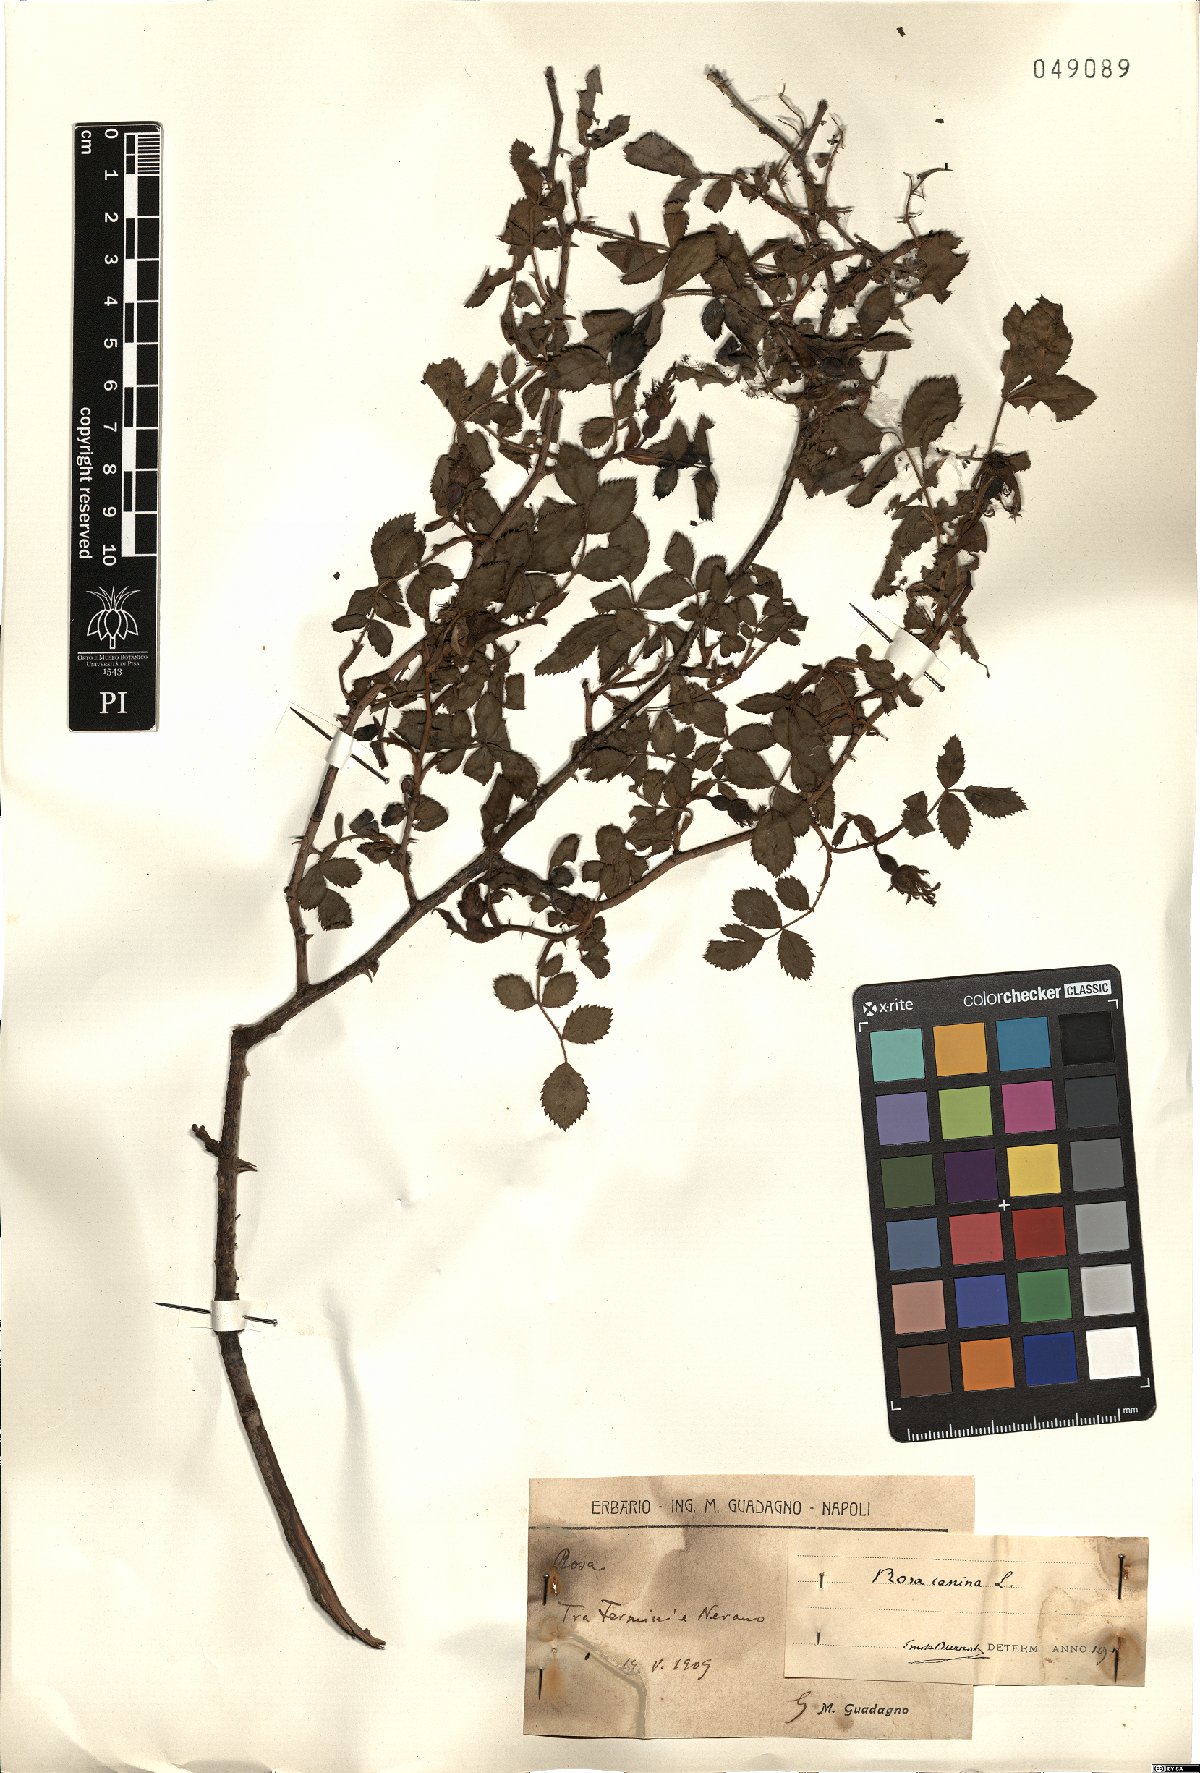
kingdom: Plantae
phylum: Tracheophyta
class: Magnoliopsida
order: Rosales
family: Rosaceae
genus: Rosa
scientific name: Rosa canina
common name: Dog rose
